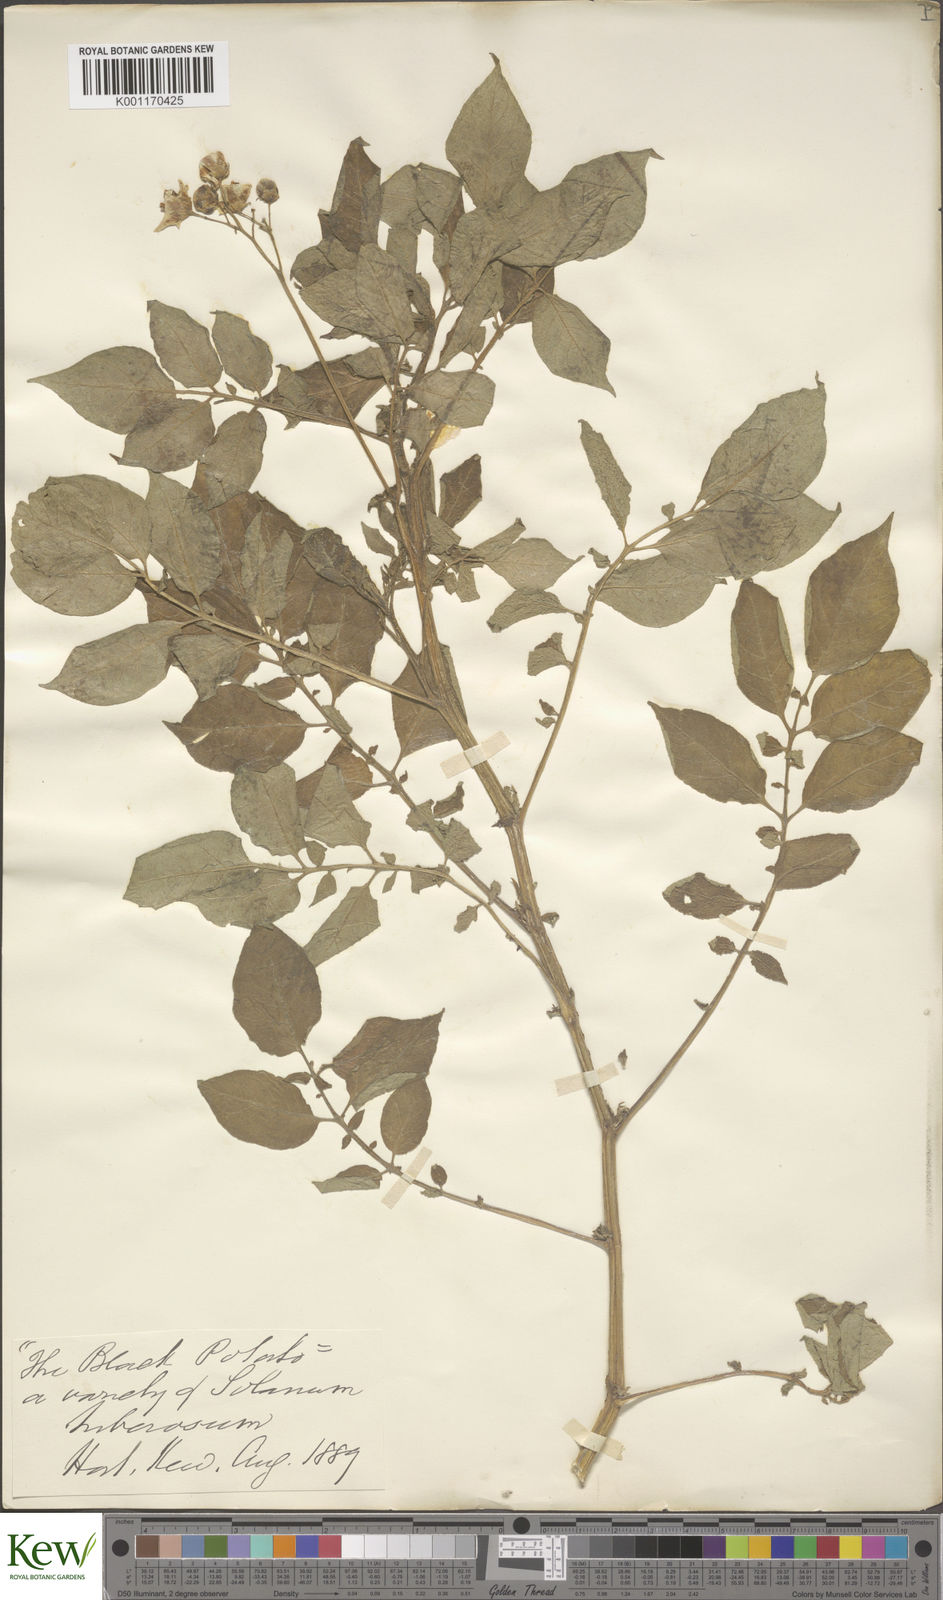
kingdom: Plantae
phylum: Tracheophyta
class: Magnoliopsida
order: Solanales
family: Solanaceae
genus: Solanum
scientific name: Solanum tuberosum
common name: Potato
